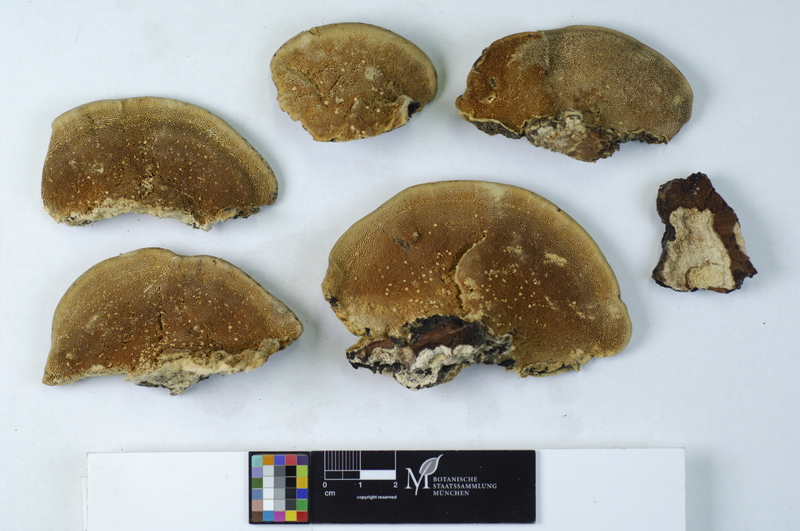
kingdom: Fungi
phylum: Basidiomycota
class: Agaricomycetes
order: Polyporales
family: Polyporaceae
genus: Trametes
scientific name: Trametes hirsuta
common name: Hairy bracket
